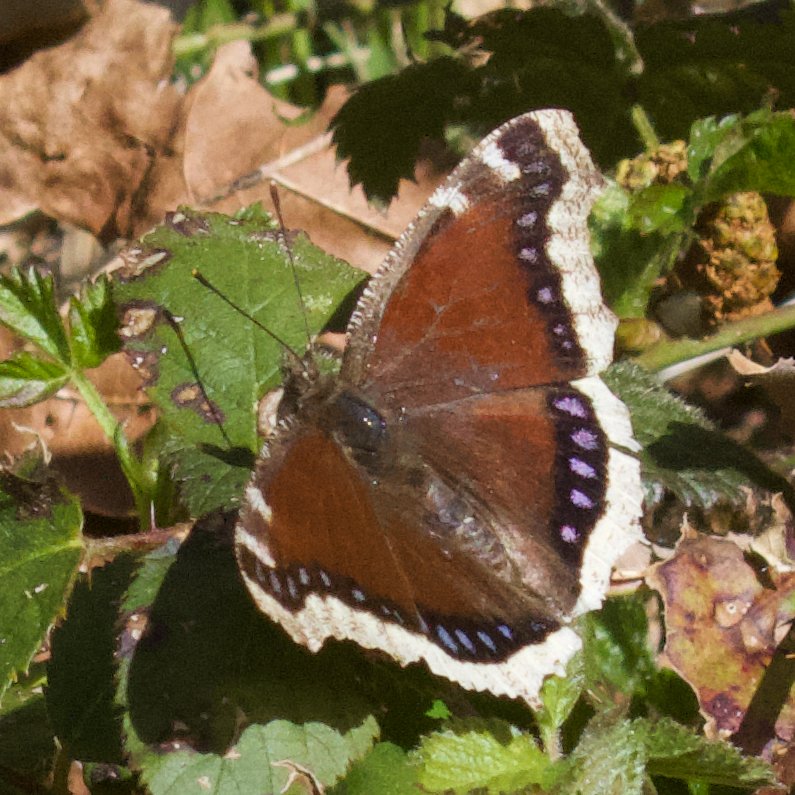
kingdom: Animalia
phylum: Arthropoda
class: Insecta
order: Lepidoptera
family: Nymphalidae
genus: Nymphalis
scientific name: Nymphalis antiopa
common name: Mourning Cloak
